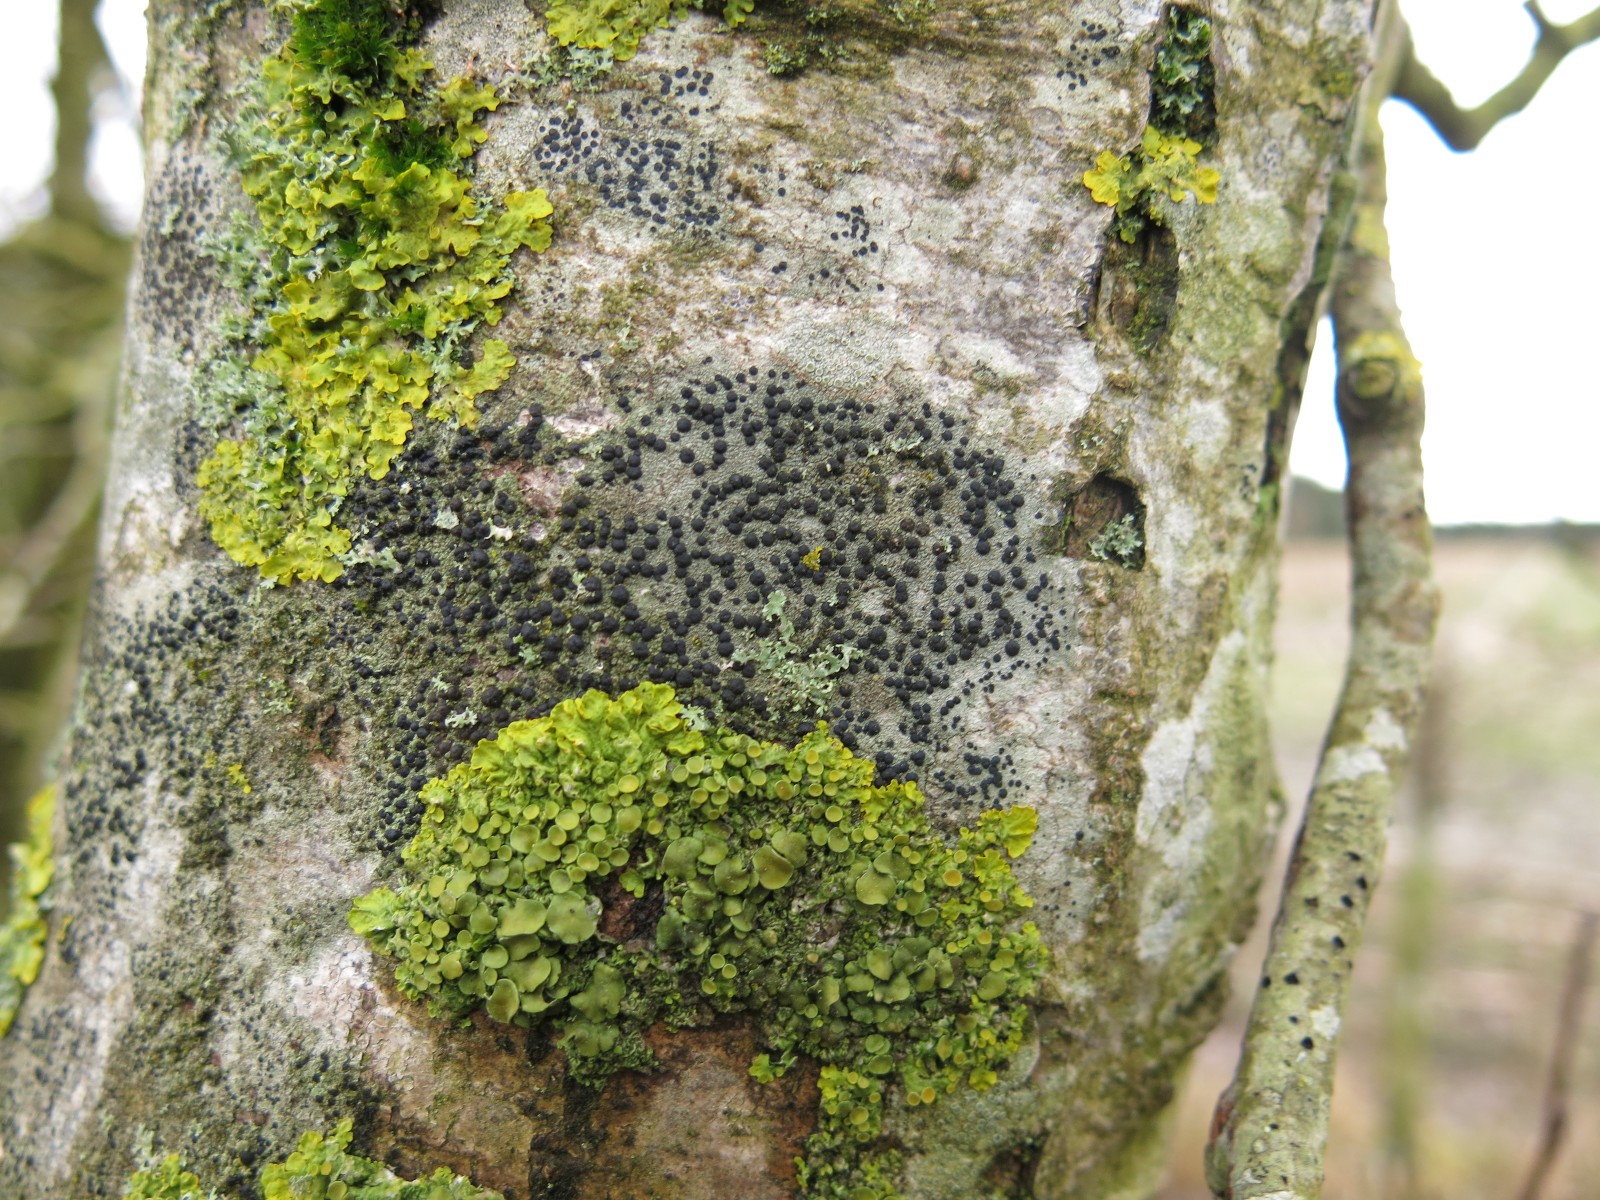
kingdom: Fungi
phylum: Ascomycota
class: Lecanoromycetes
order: Lecanorales
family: Lecanoraceae
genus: Lecidella
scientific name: Lecidella elaeochroma
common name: grågrøn skivelav
